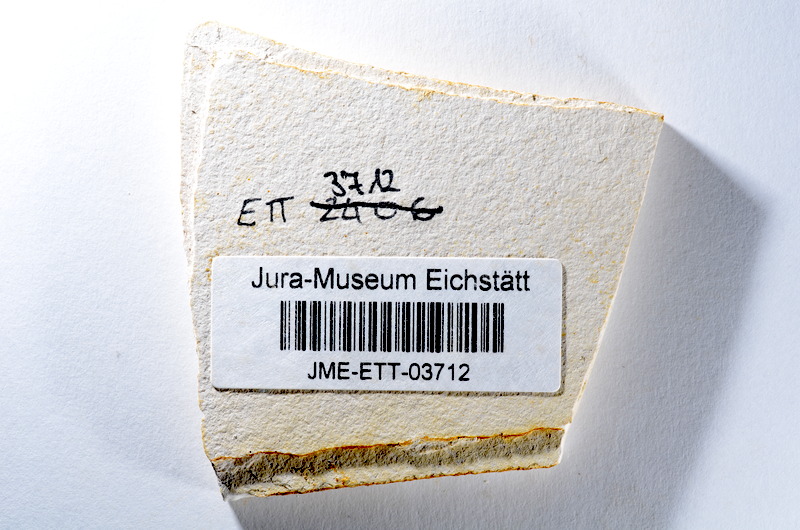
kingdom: Animalia
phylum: Chordata
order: Salmoniformes
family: Orthogonikleithridae
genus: Orthogonikleithrus
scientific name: Orthogonikleithrus hoelli
